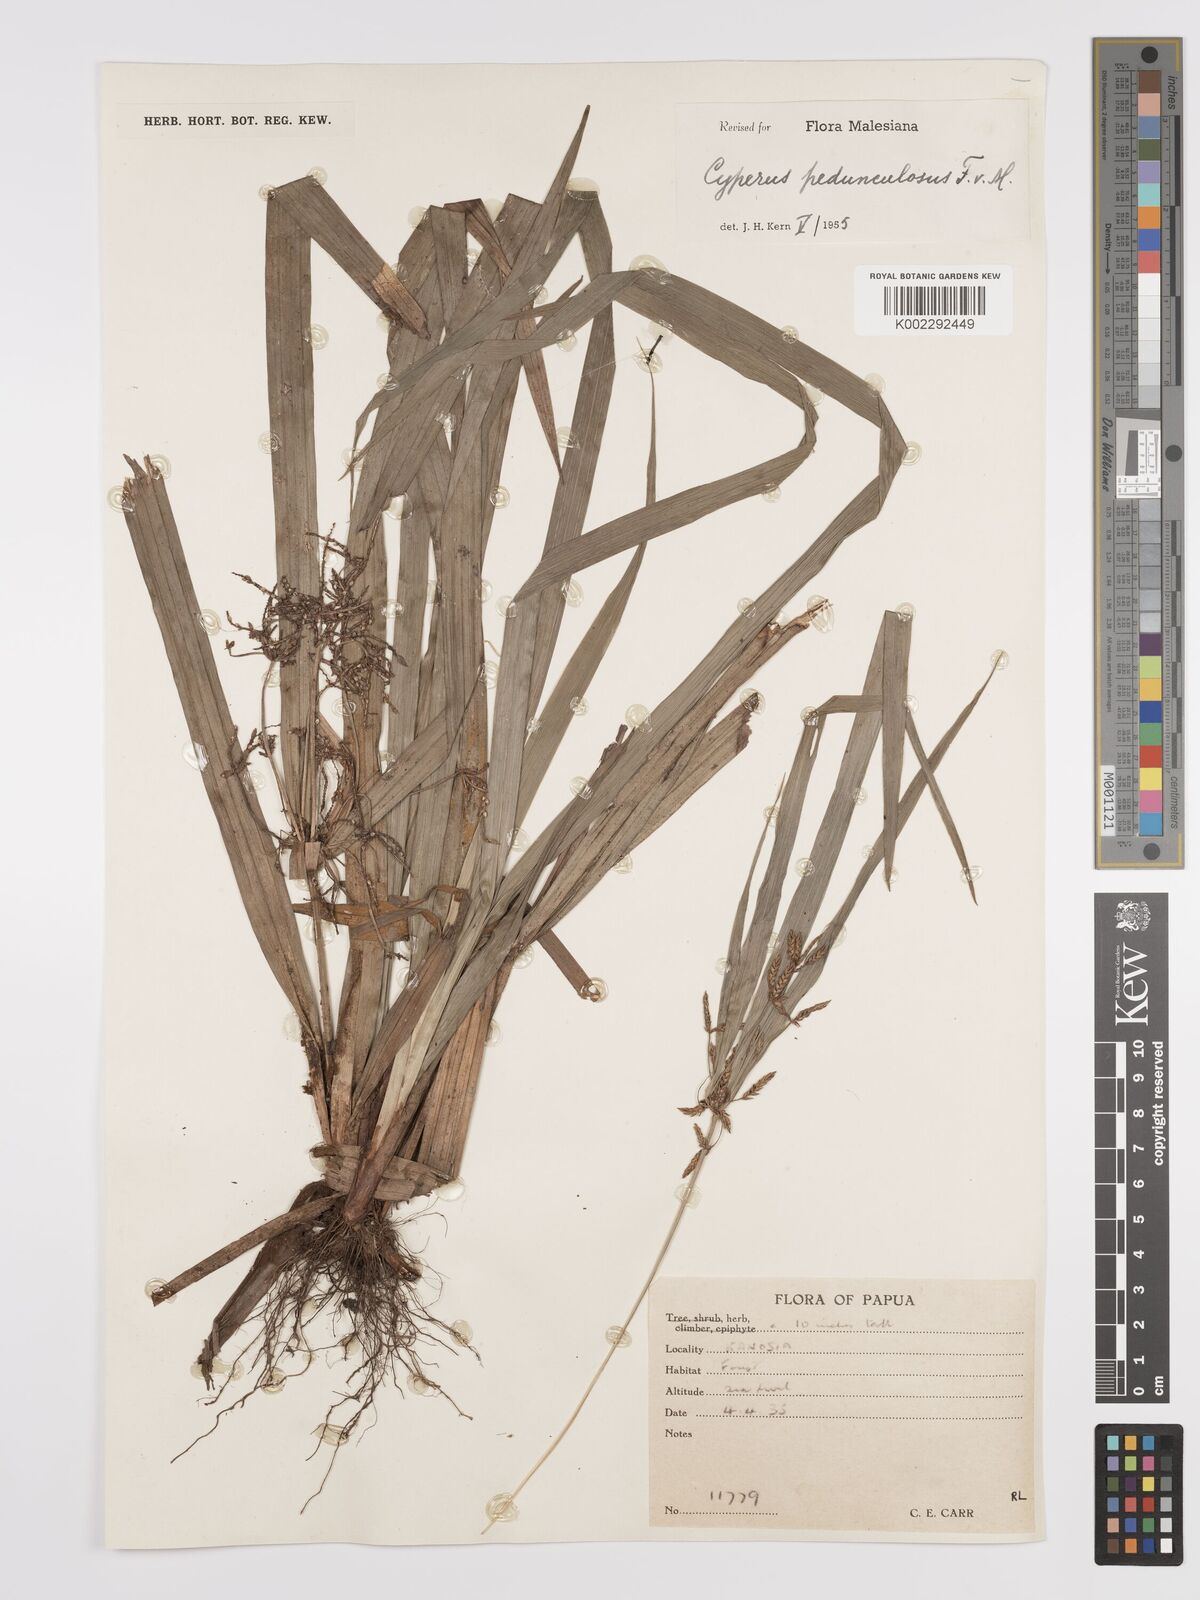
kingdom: Plantae
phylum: Tracheophyta
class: Liliopsida
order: Poales
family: Cyperaceae
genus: Cyperus
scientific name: Cyperus pedunculosus
